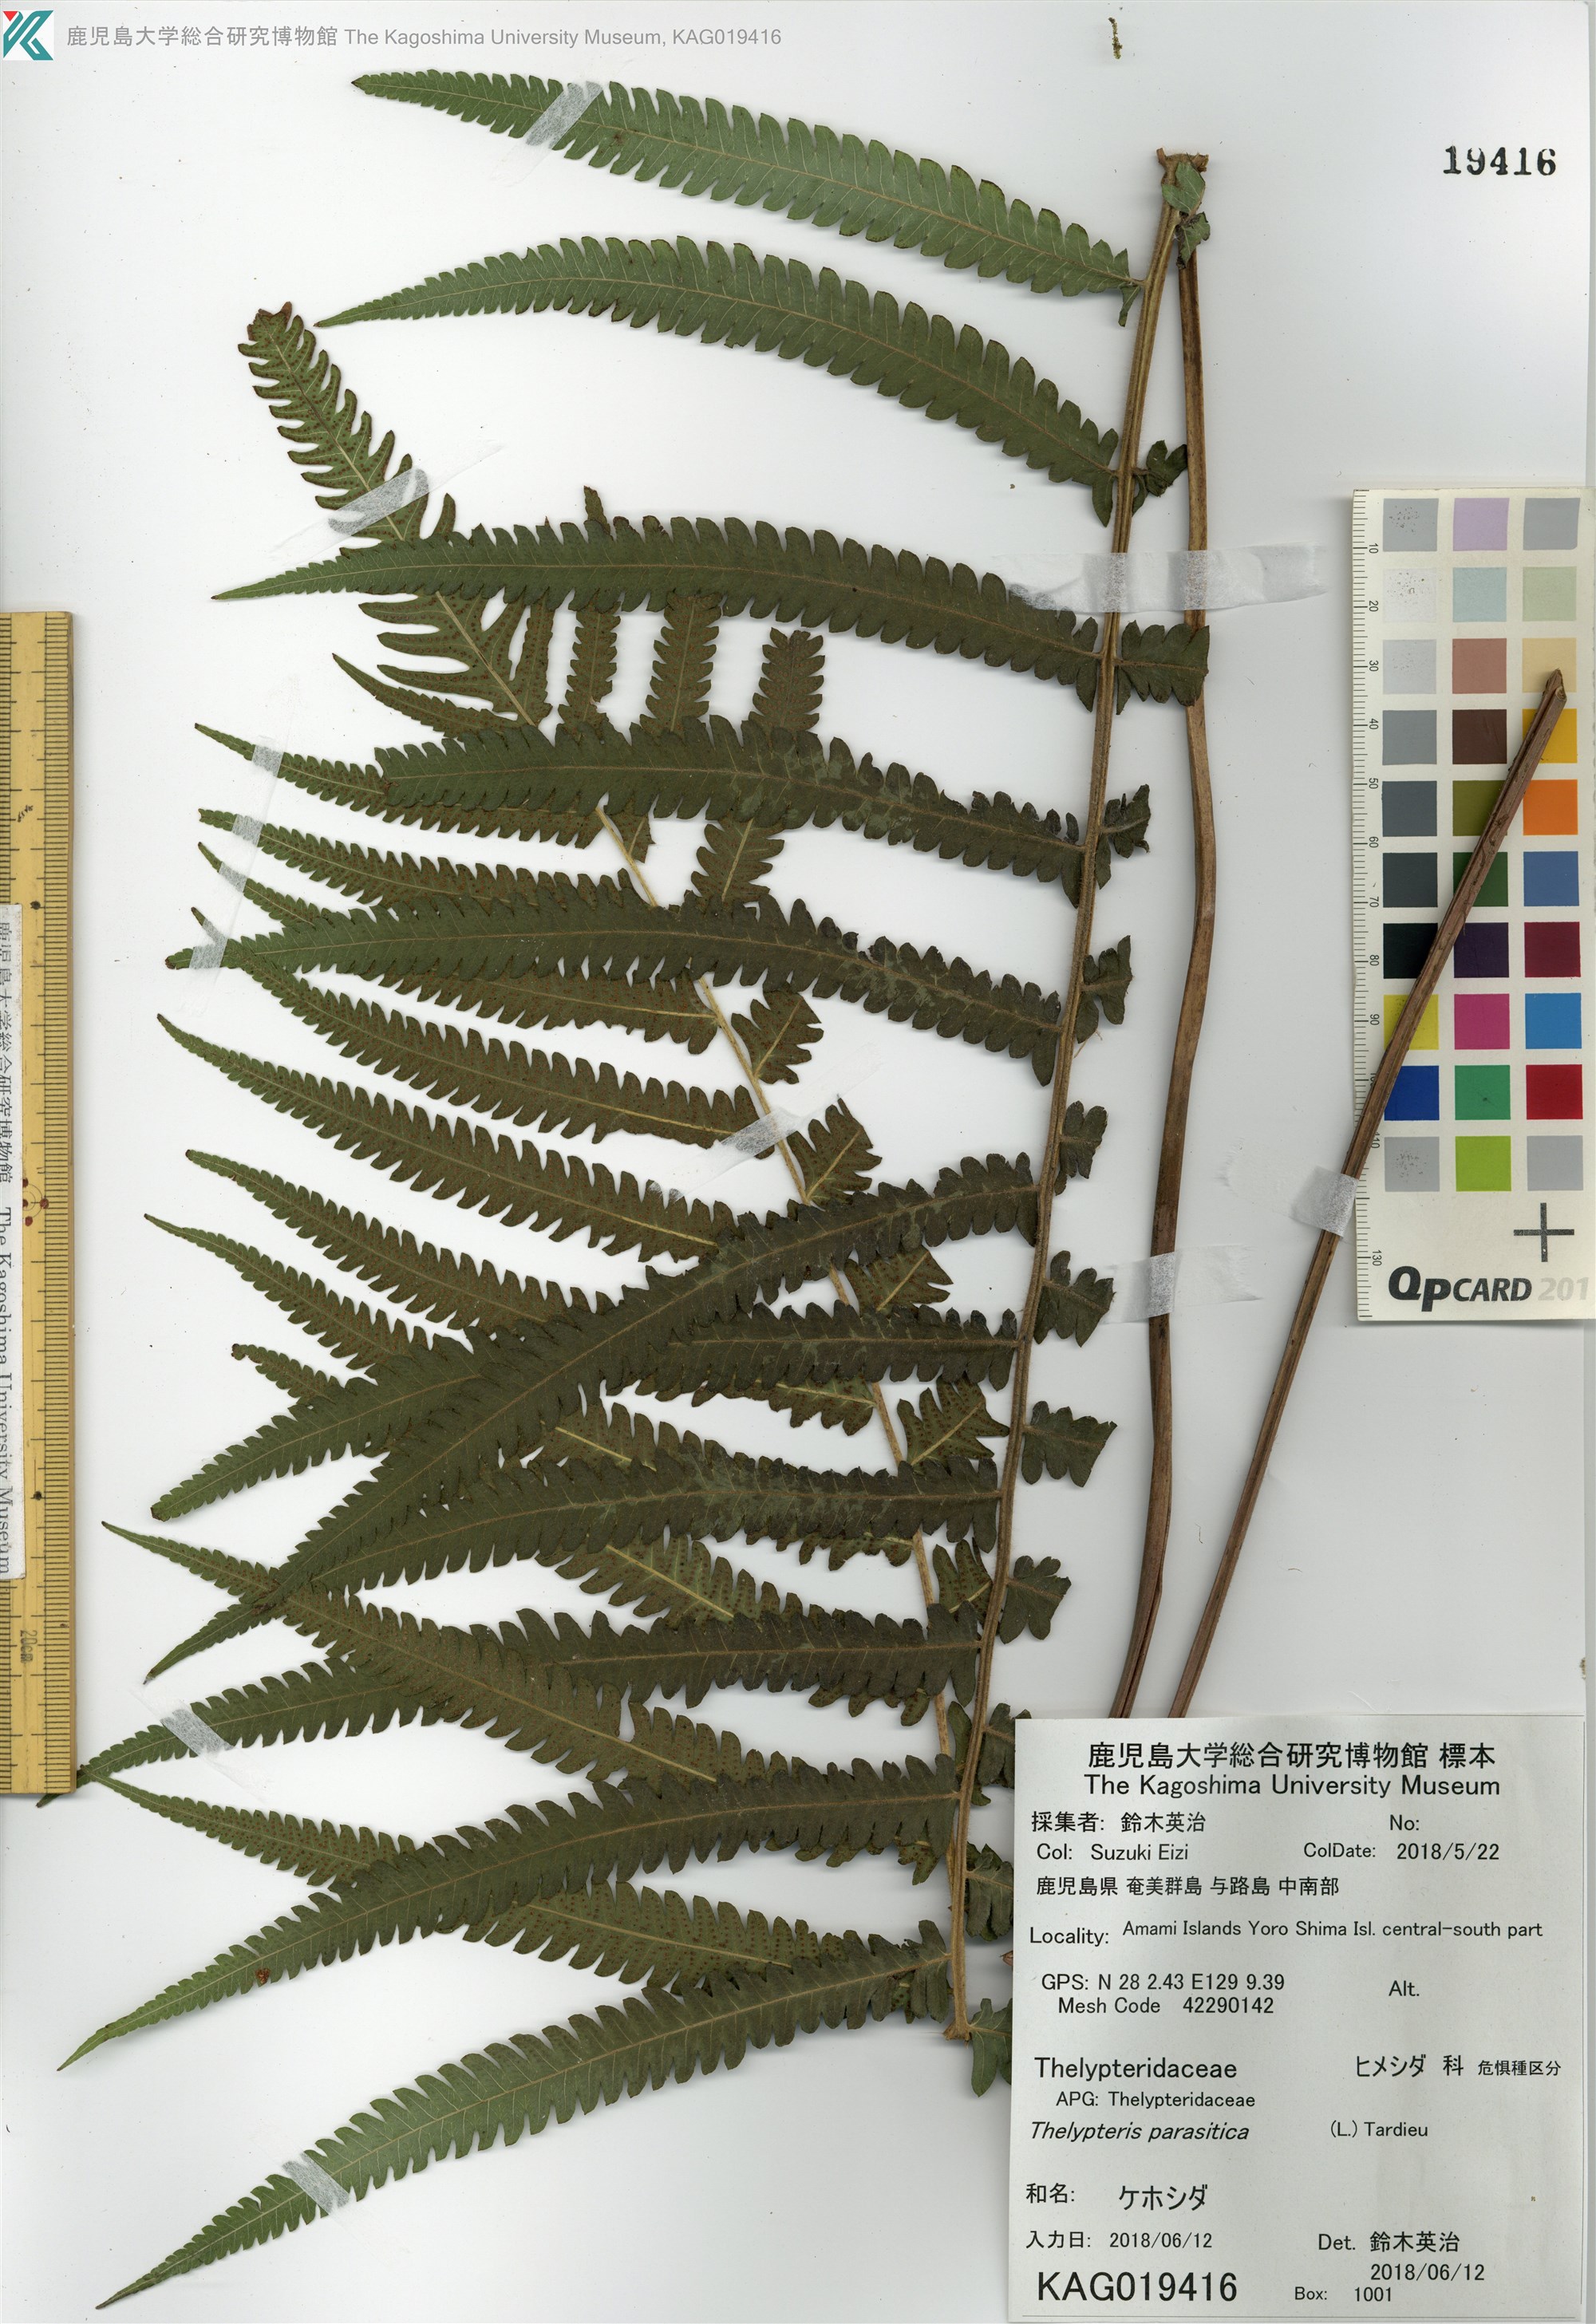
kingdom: Plantae
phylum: Tracheophyta
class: Polypodiopsida
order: Polypodiales
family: Thelypteridaceae
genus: Christella
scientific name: Christella parasitica
